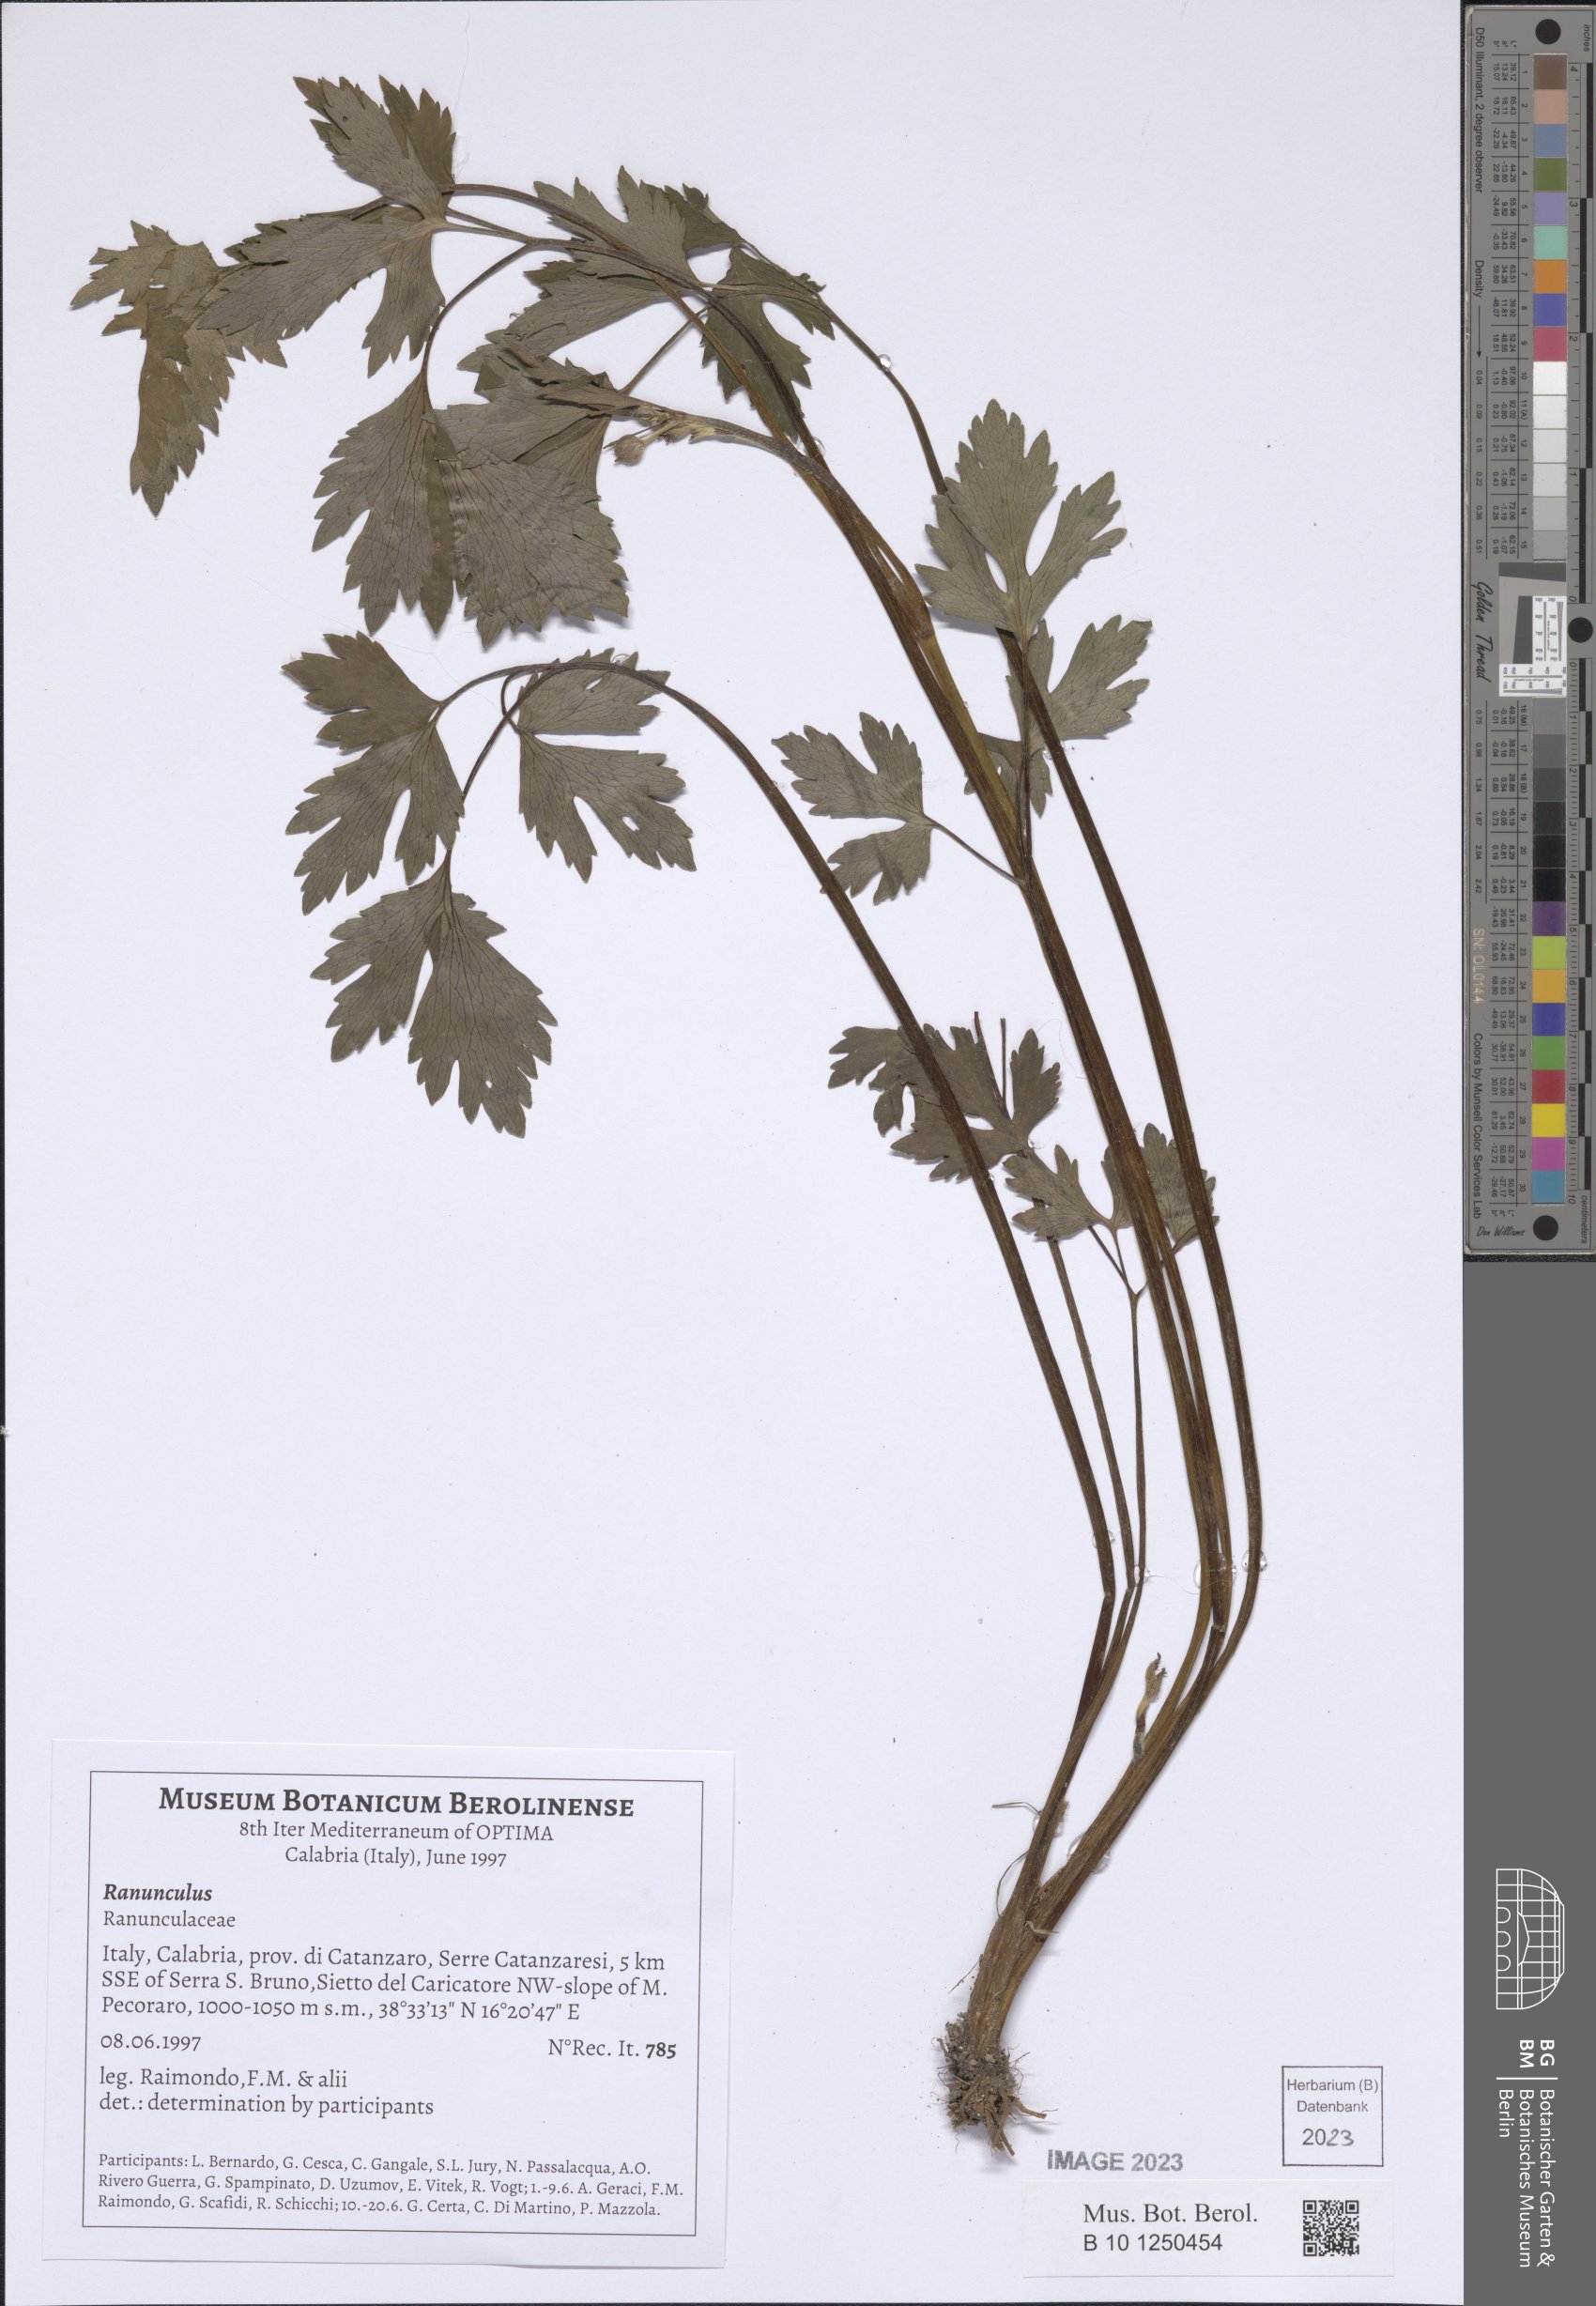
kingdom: Plantae
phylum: Tracheophyta
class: Magnoliopsida
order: Ranunculales
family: Ranunculaceae
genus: Ranunculus
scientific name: Ranunculus
